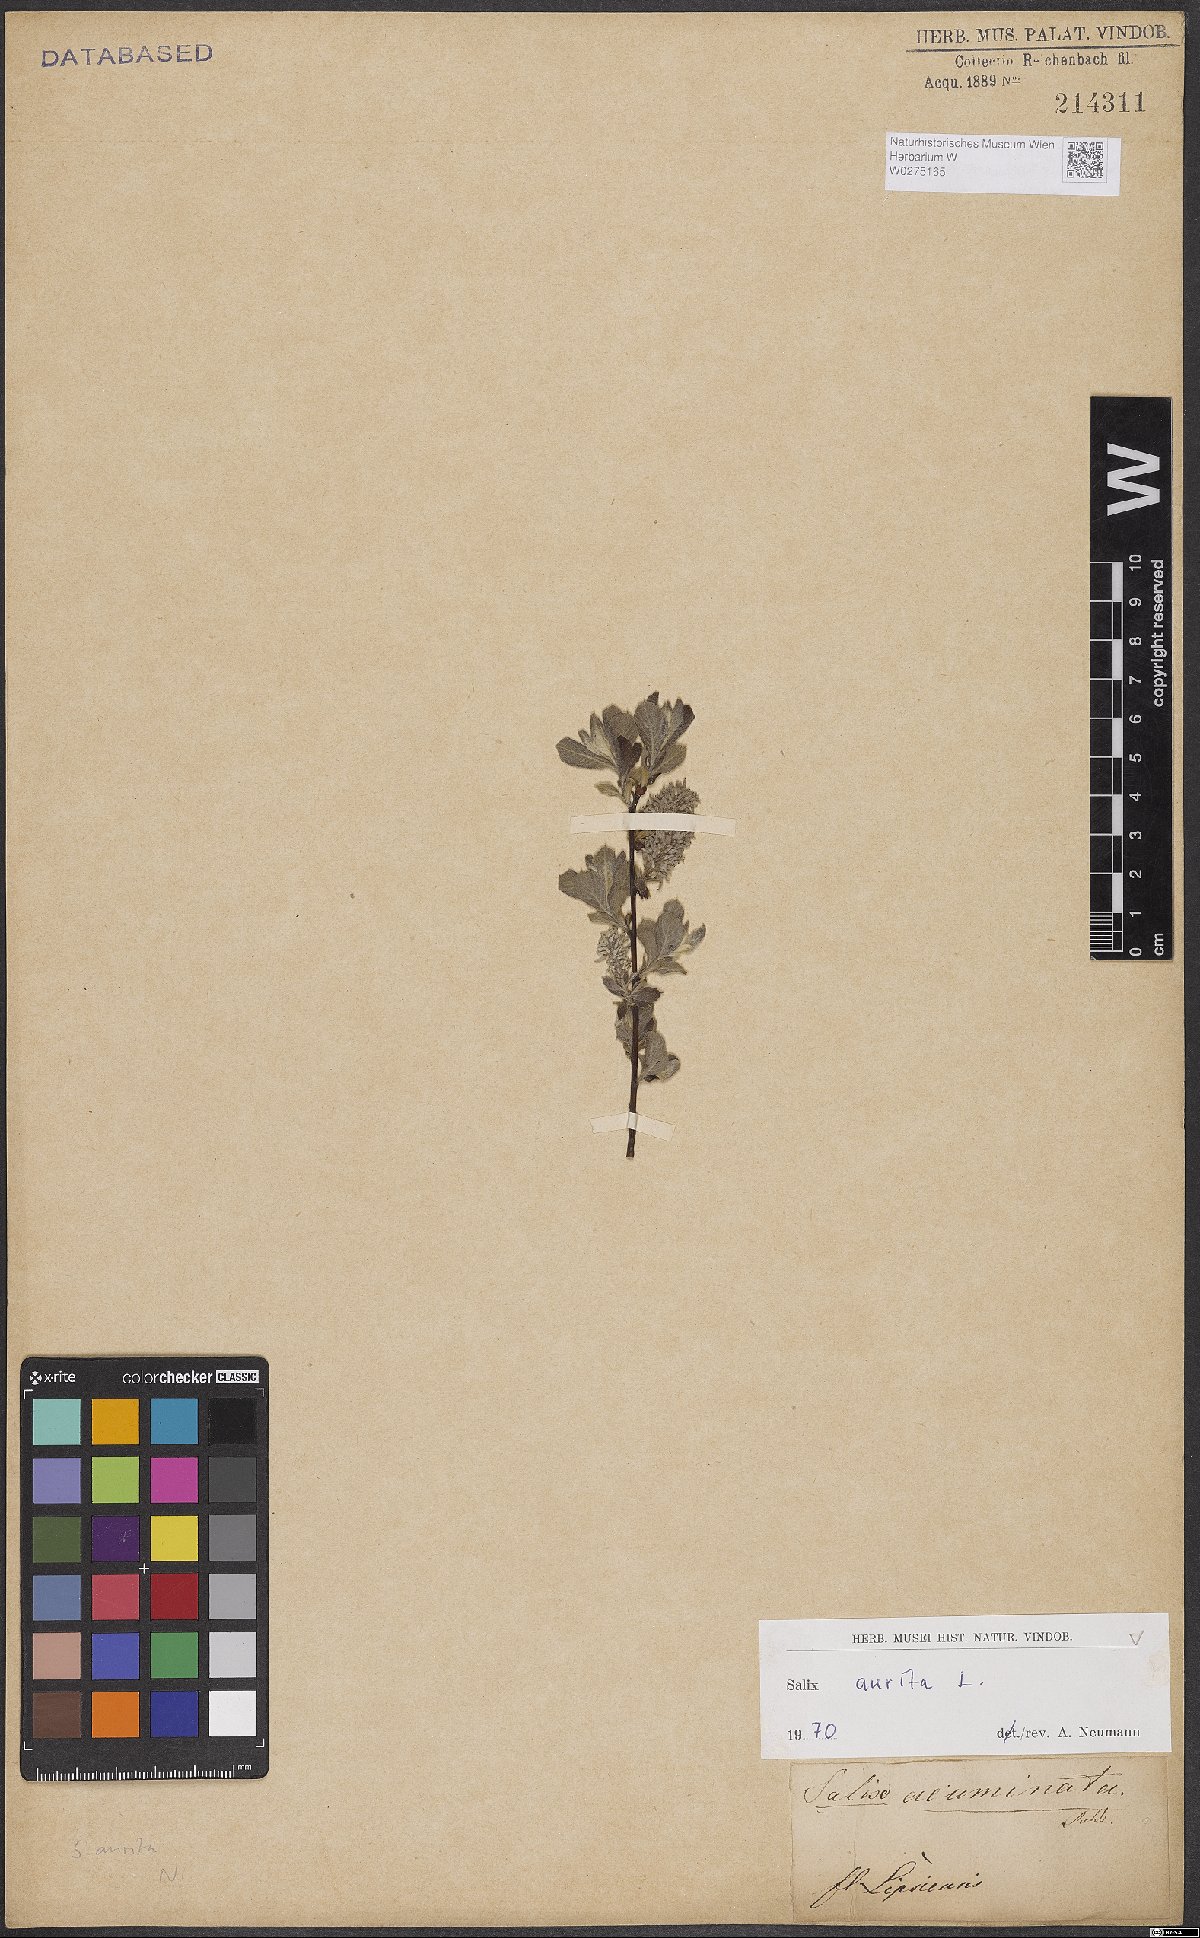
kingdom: Plantae
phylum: Tracheophyta
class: Magnoliopsida
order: Malpighiales
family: Salicaceae
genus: Salix
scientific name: Salix aurita
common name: Eared willow
